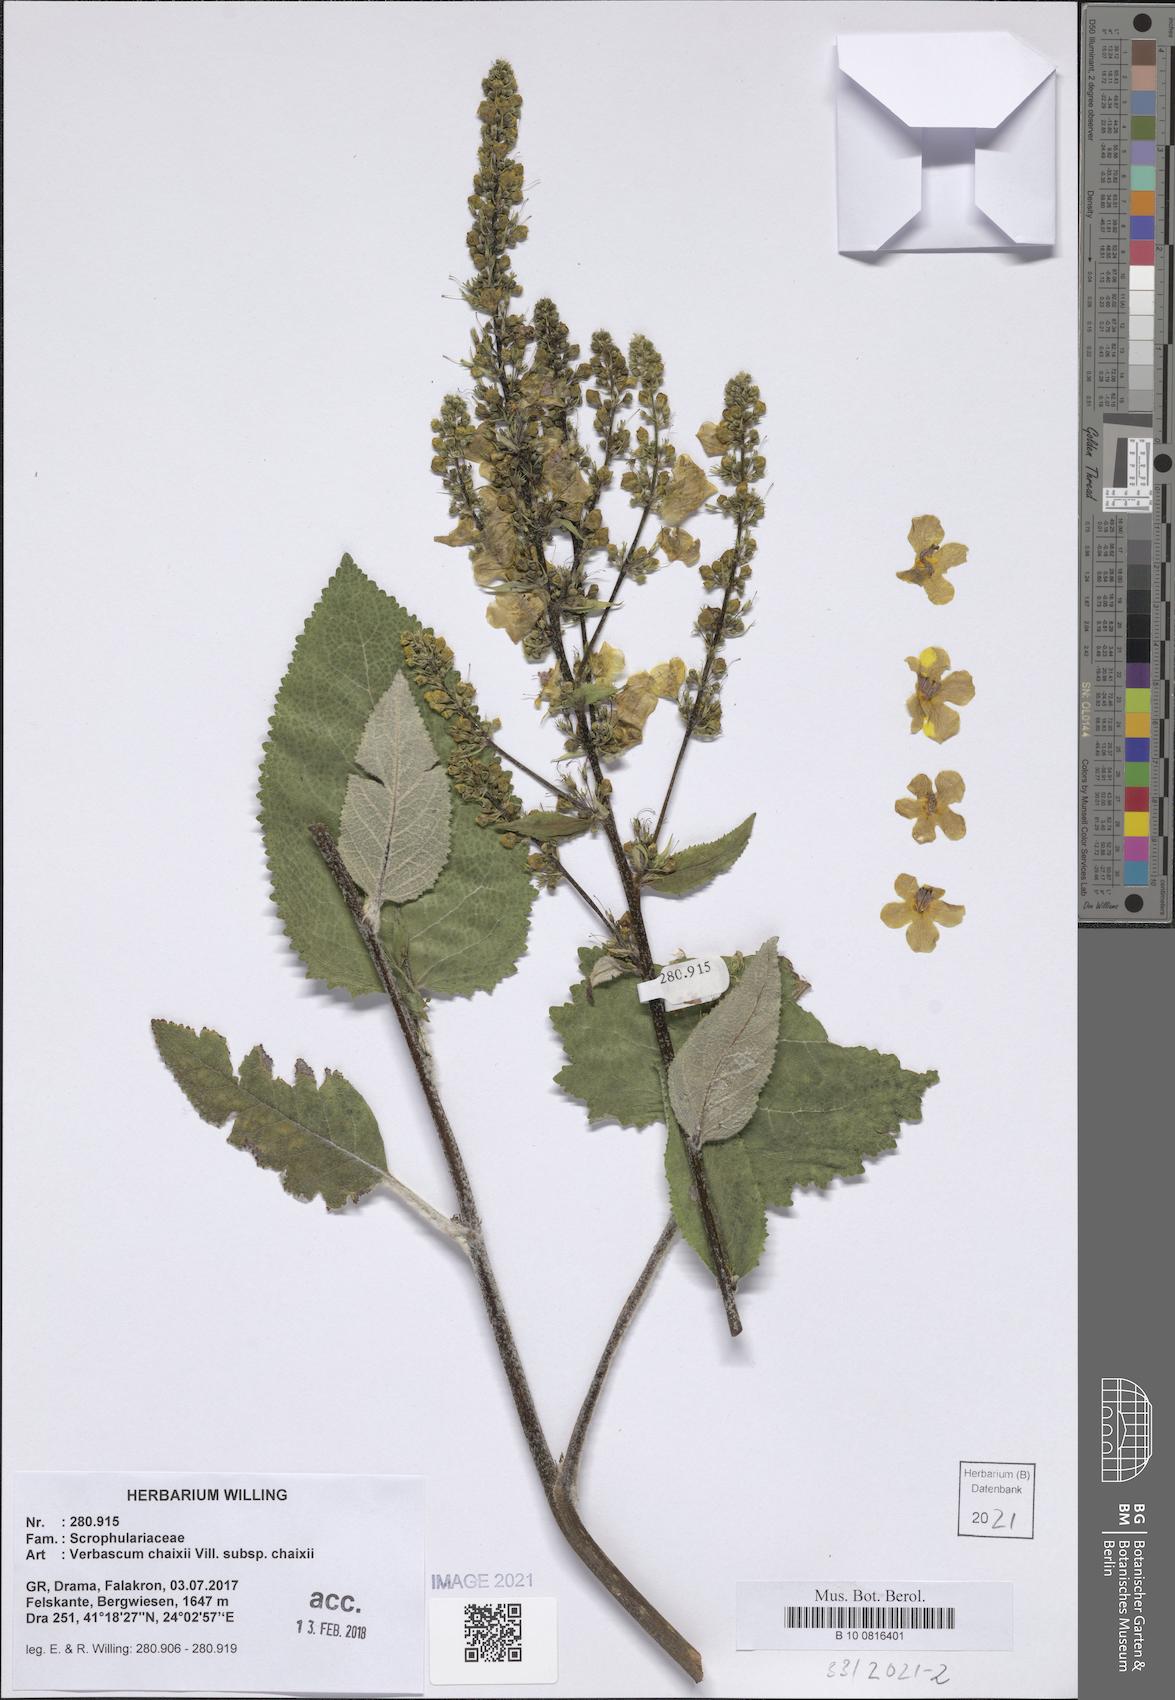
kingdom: Plantae
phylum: Tracheophyta
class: Magnoliopsida
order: Lamiales
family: Scrophulariaceae
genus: Verbascum
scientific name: Verbascum glabratum
